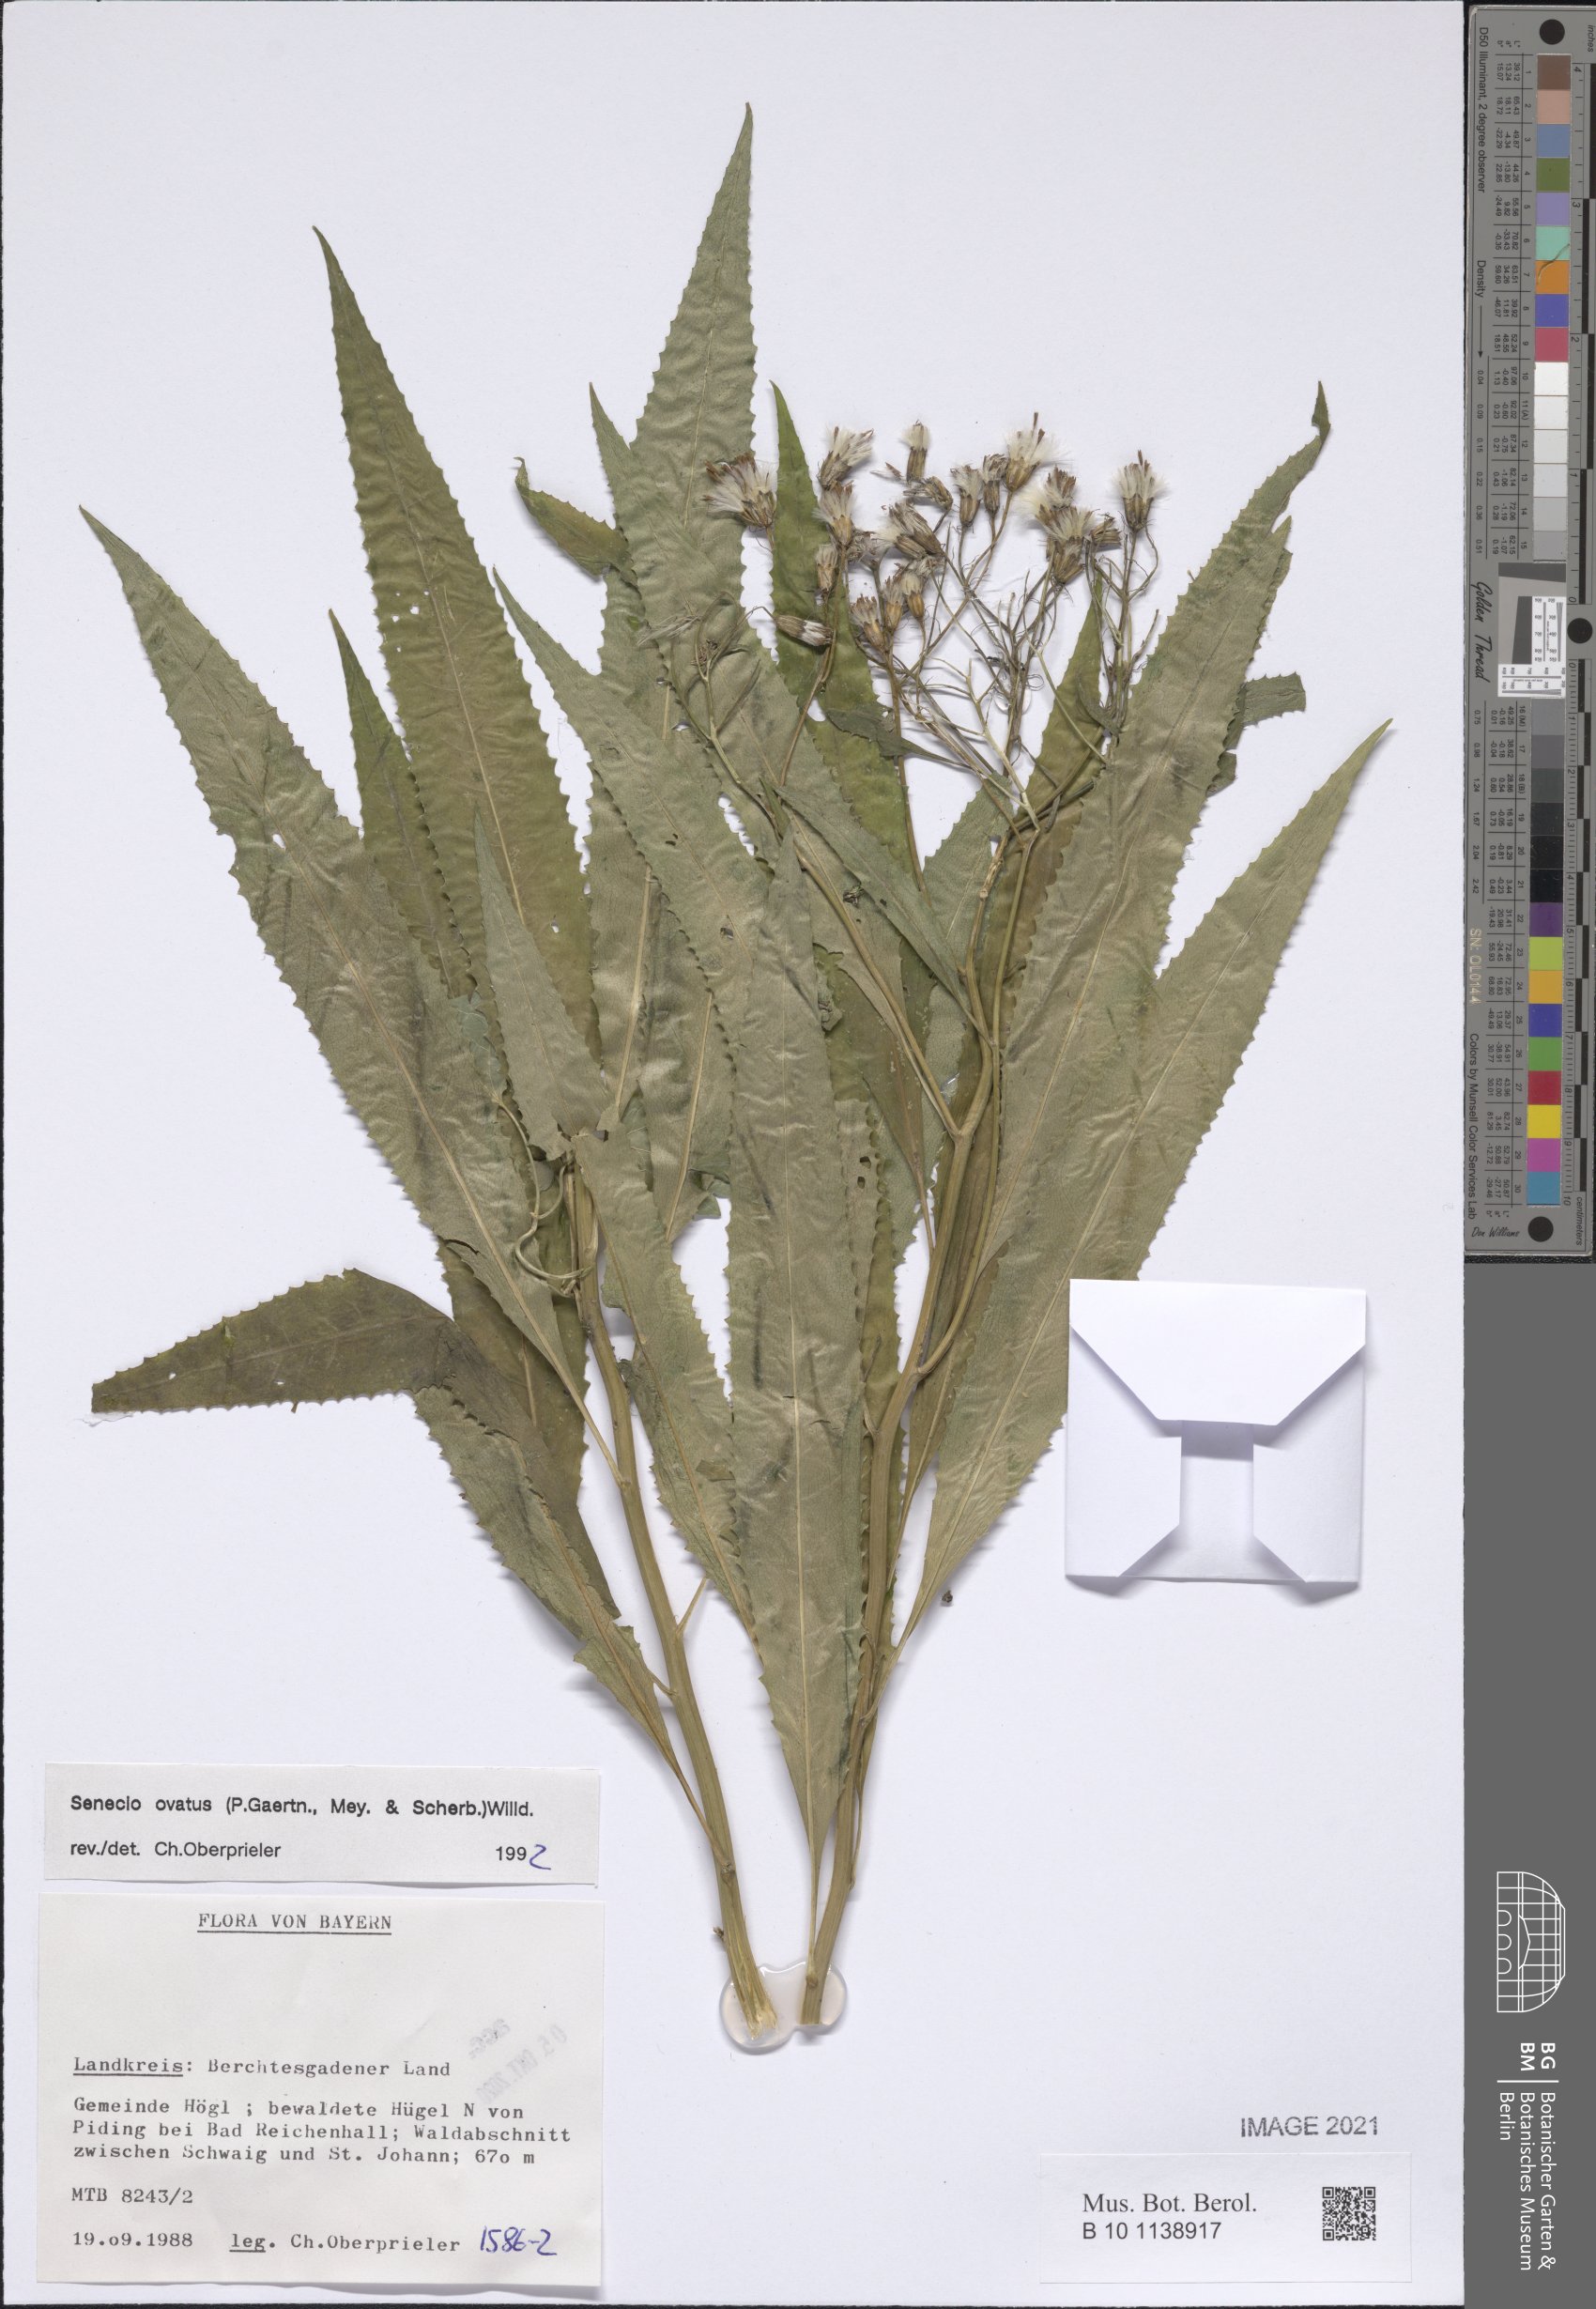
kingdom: Plantae
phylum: Tracheophyta
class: Magnoliopsida
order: Asterales
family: Asteraceae
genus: Senecio
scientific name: Senecio ovatus
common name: Wood ragwort
